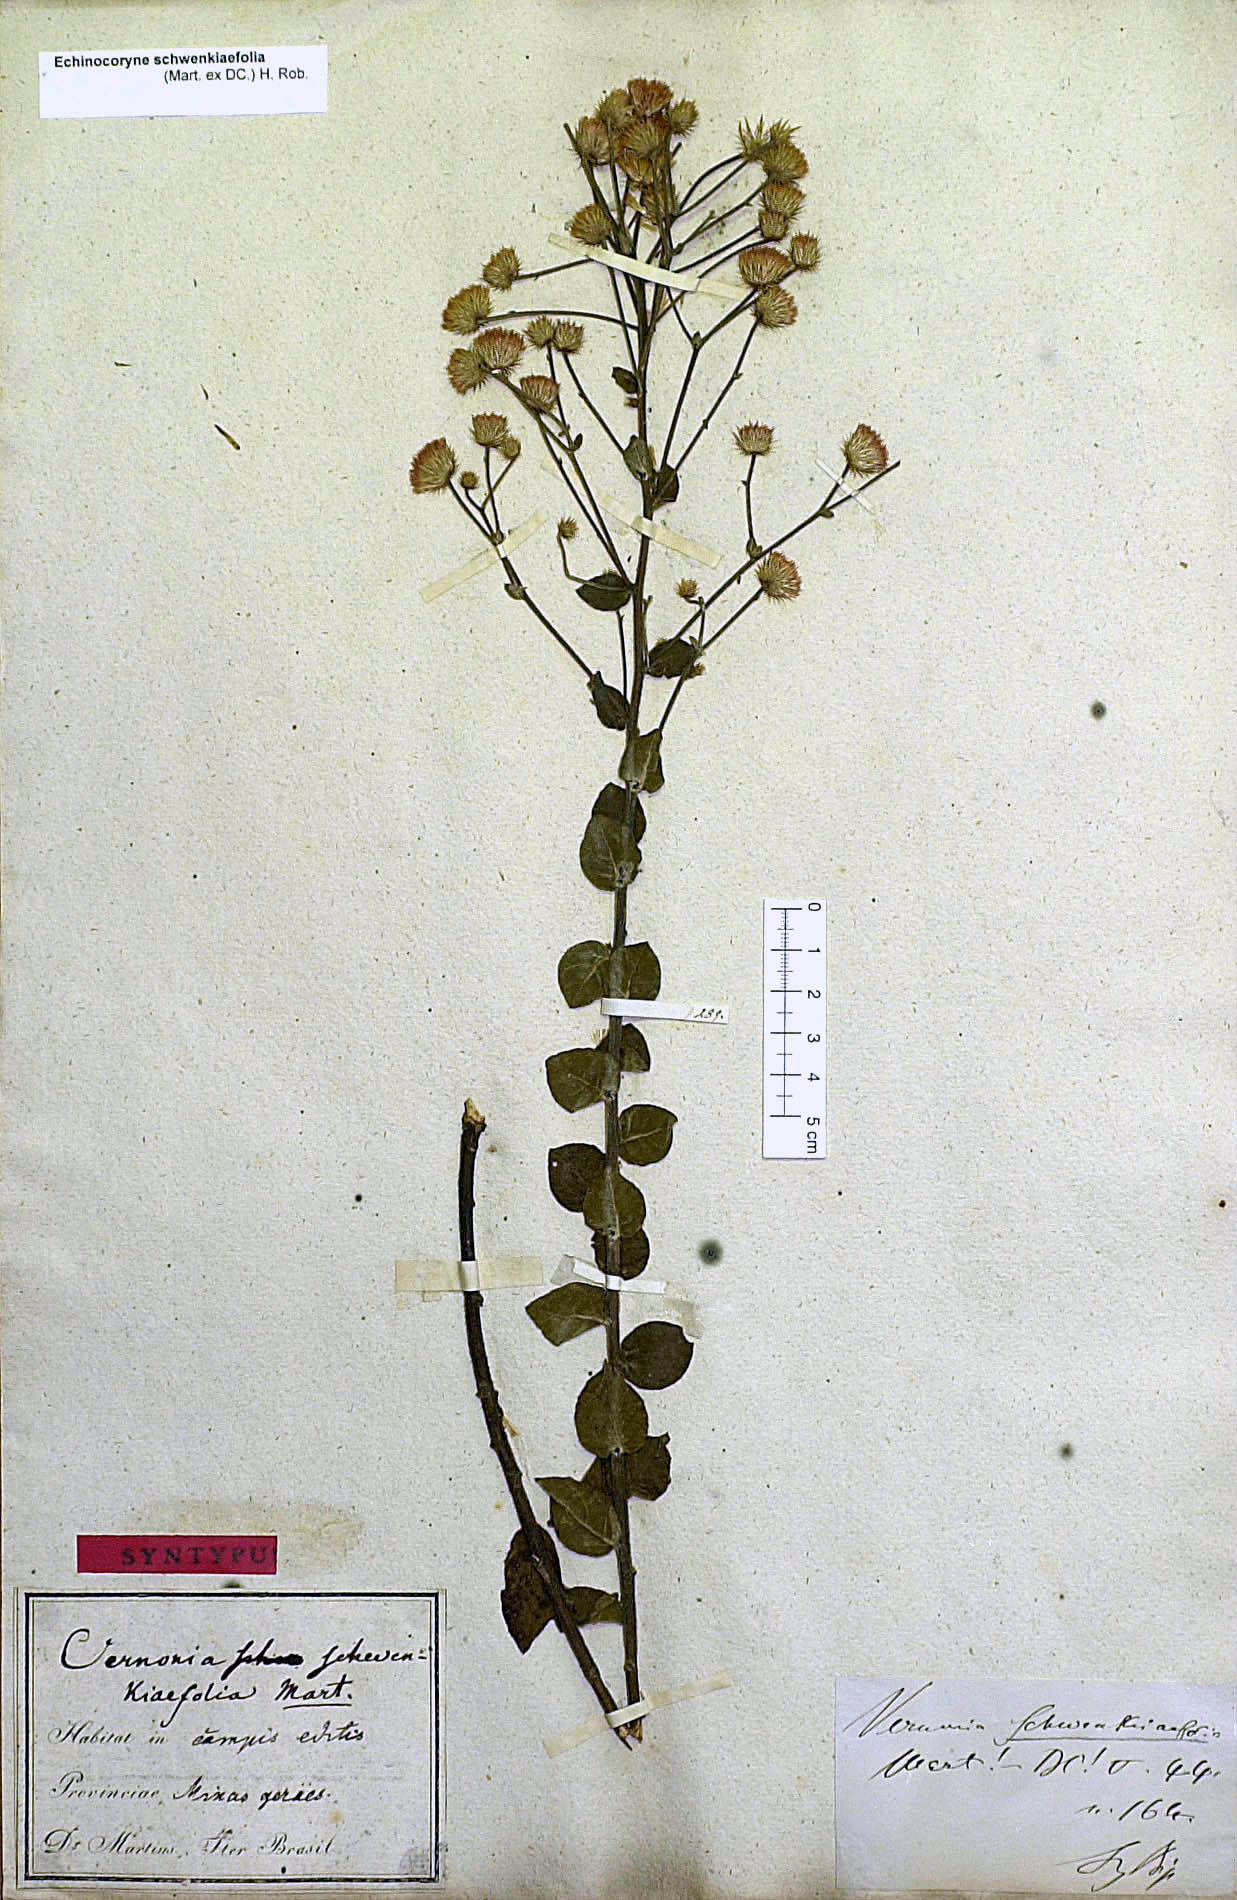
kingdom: Plantae
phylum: Tracheophyta
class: Magnoliopsida
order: Asterales
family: Asteraceae
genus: Echinocoryne
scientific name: Echinocoryne schwenkiaefolia
